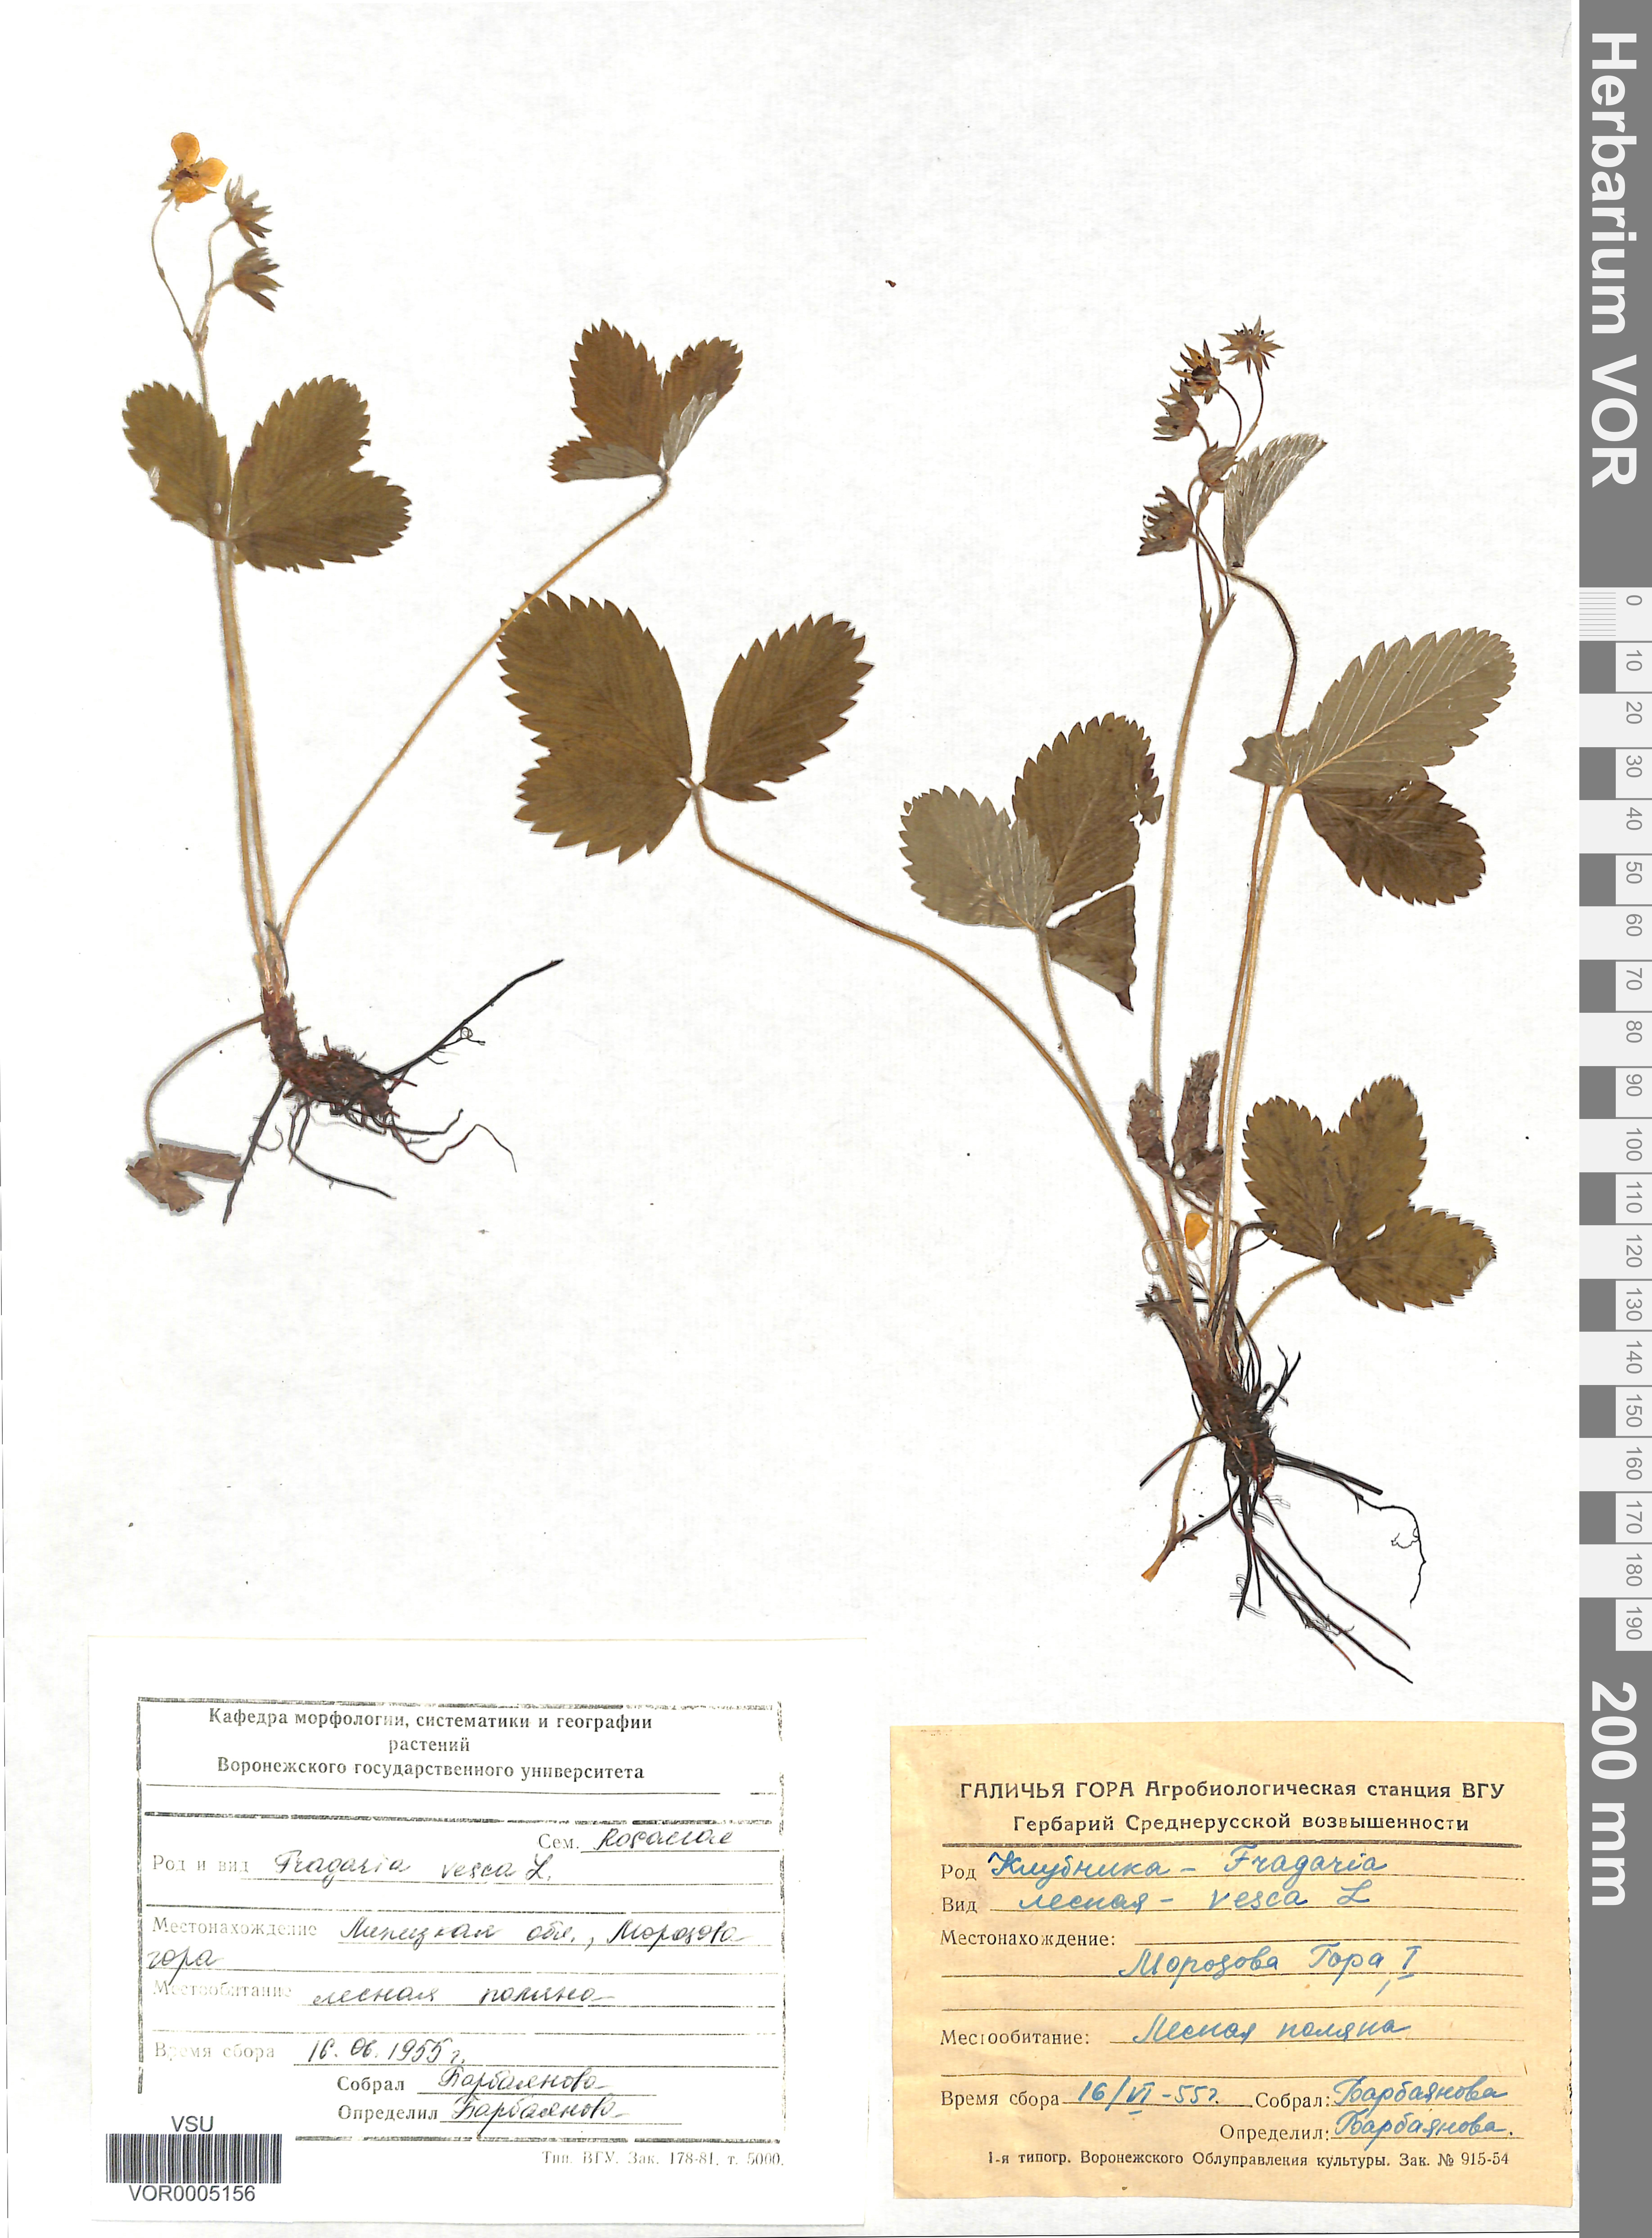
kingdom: Plantae
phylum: Tracheophyta
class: Magnoliopsida
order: Rosales
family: Rosaceae
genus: Fragaria
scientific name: Fragaria vesca
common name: Wild strawberry
